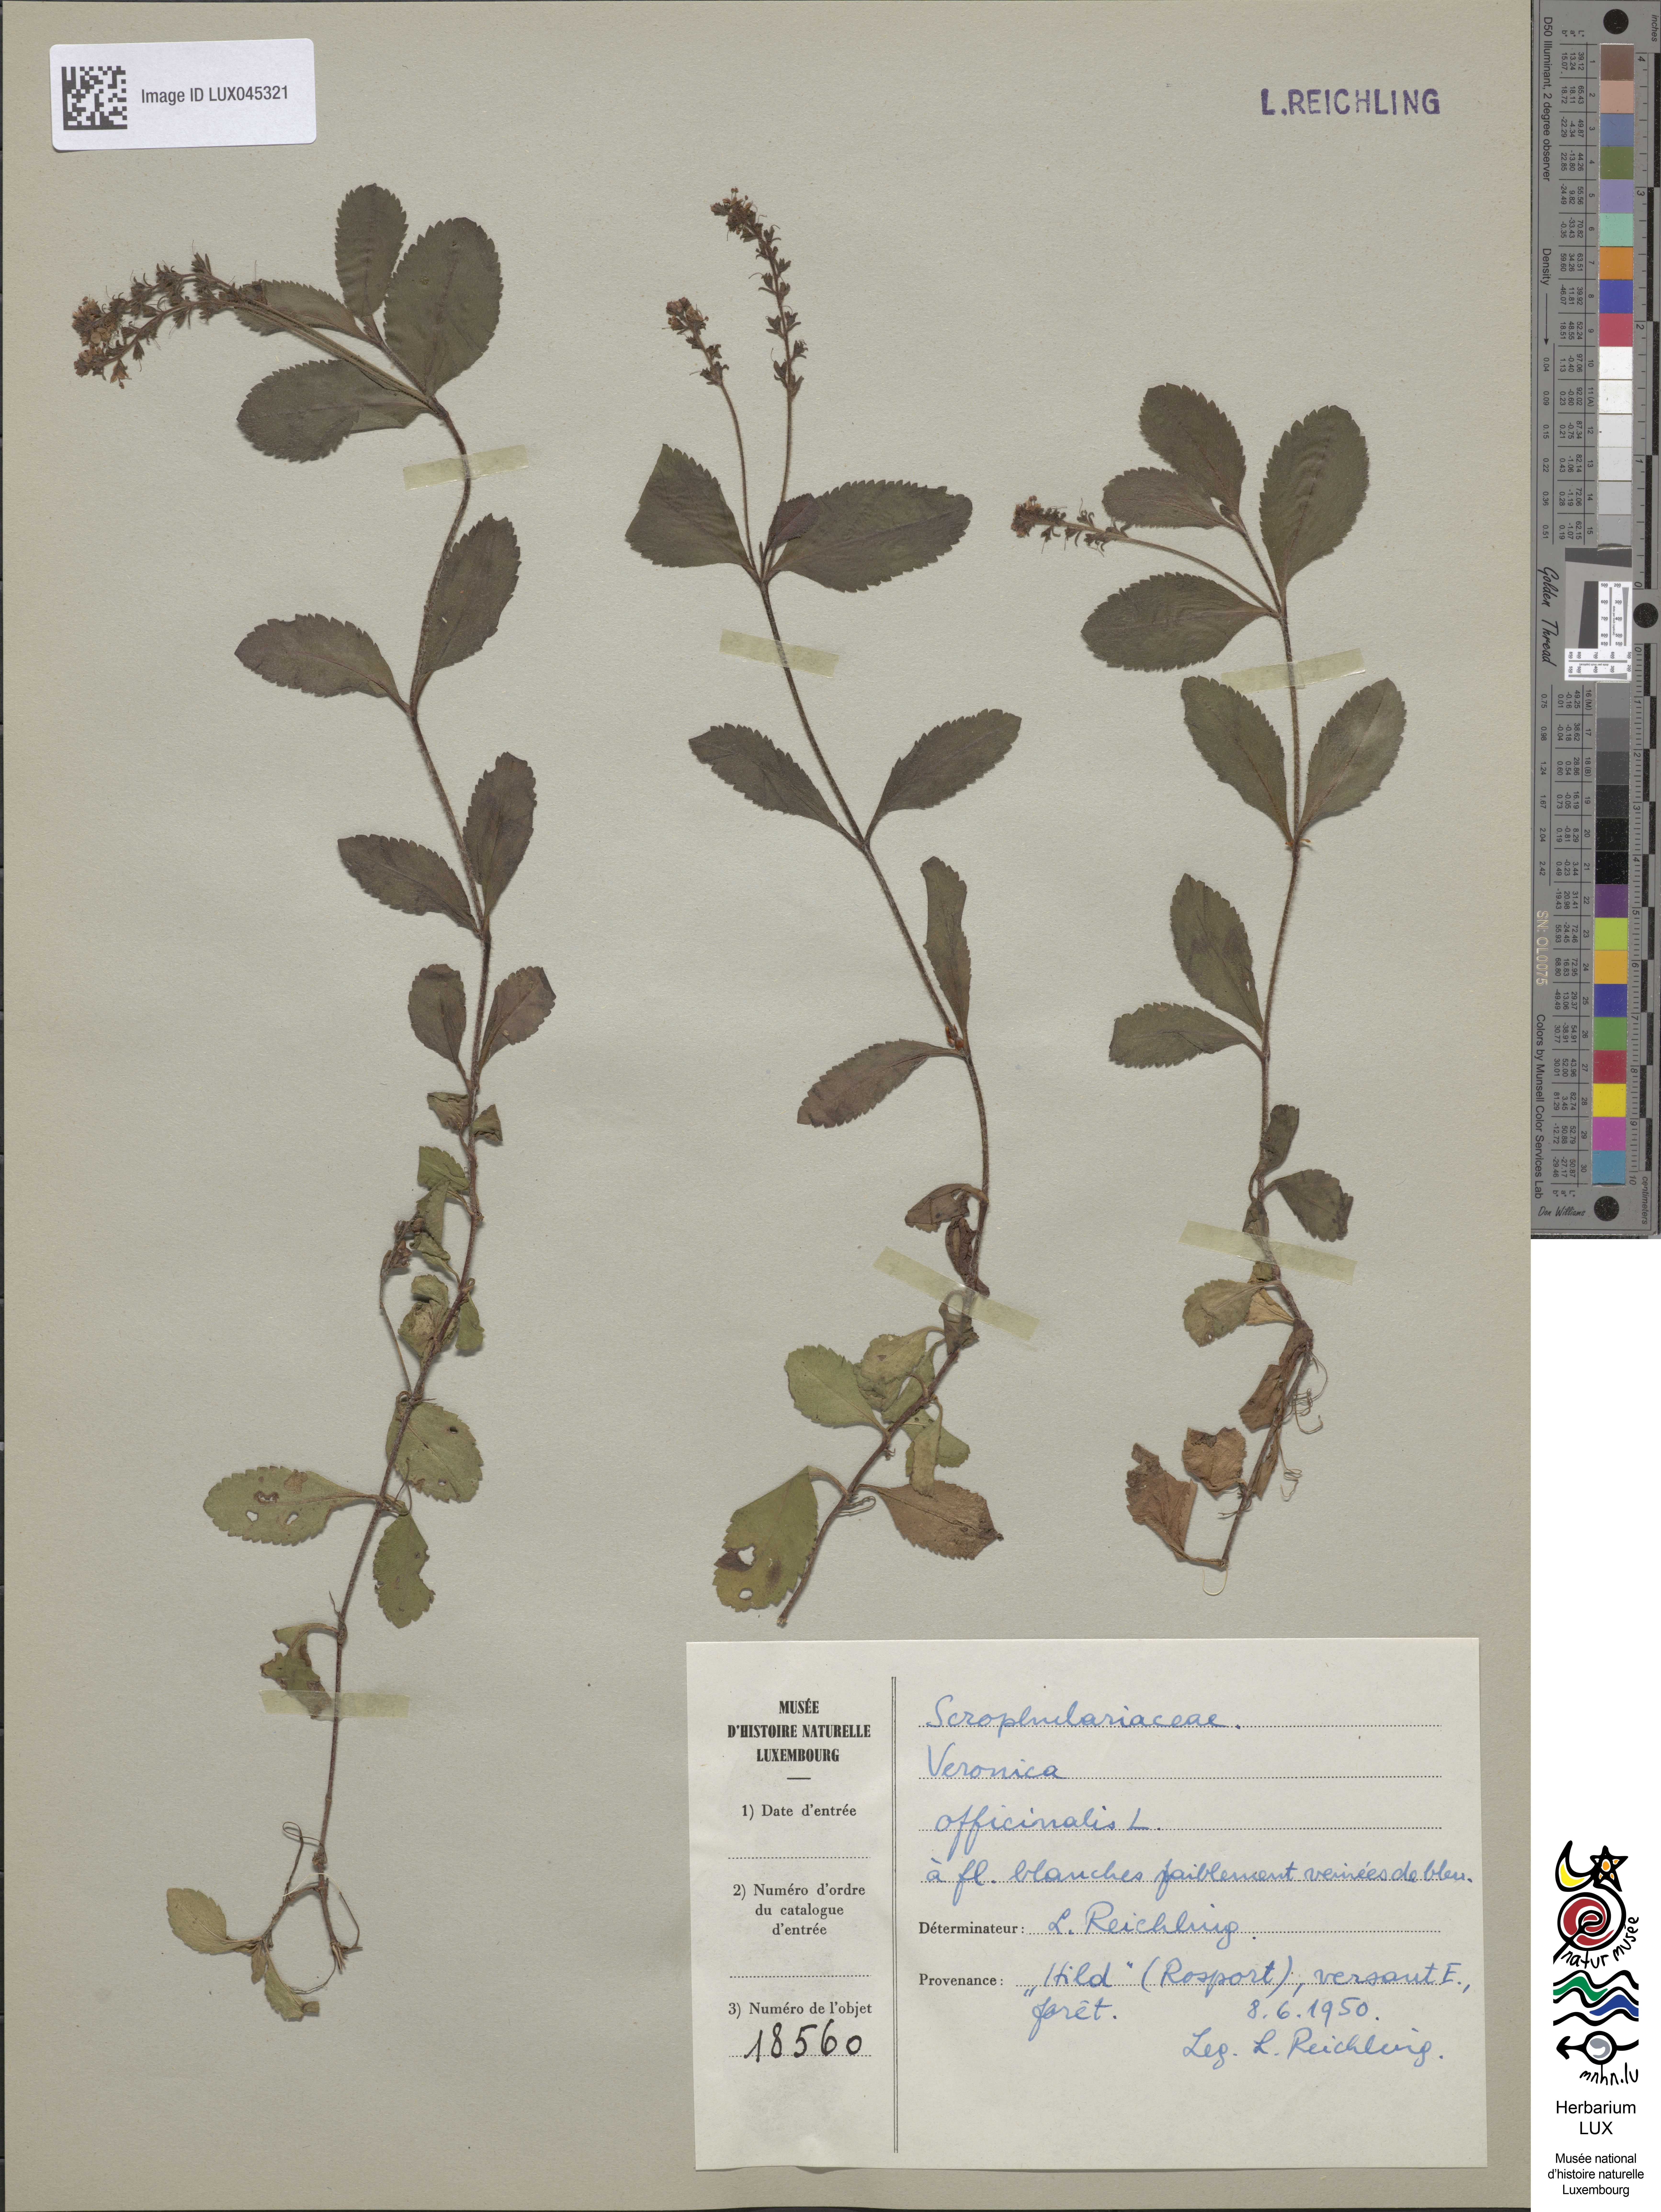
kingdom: Plantae
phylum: Tracheophyta
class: Magnoliopsida
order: Lamiales
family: Plantaginaceae
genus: Veronica
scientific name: Veronica officinalis
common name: Common speedwell
